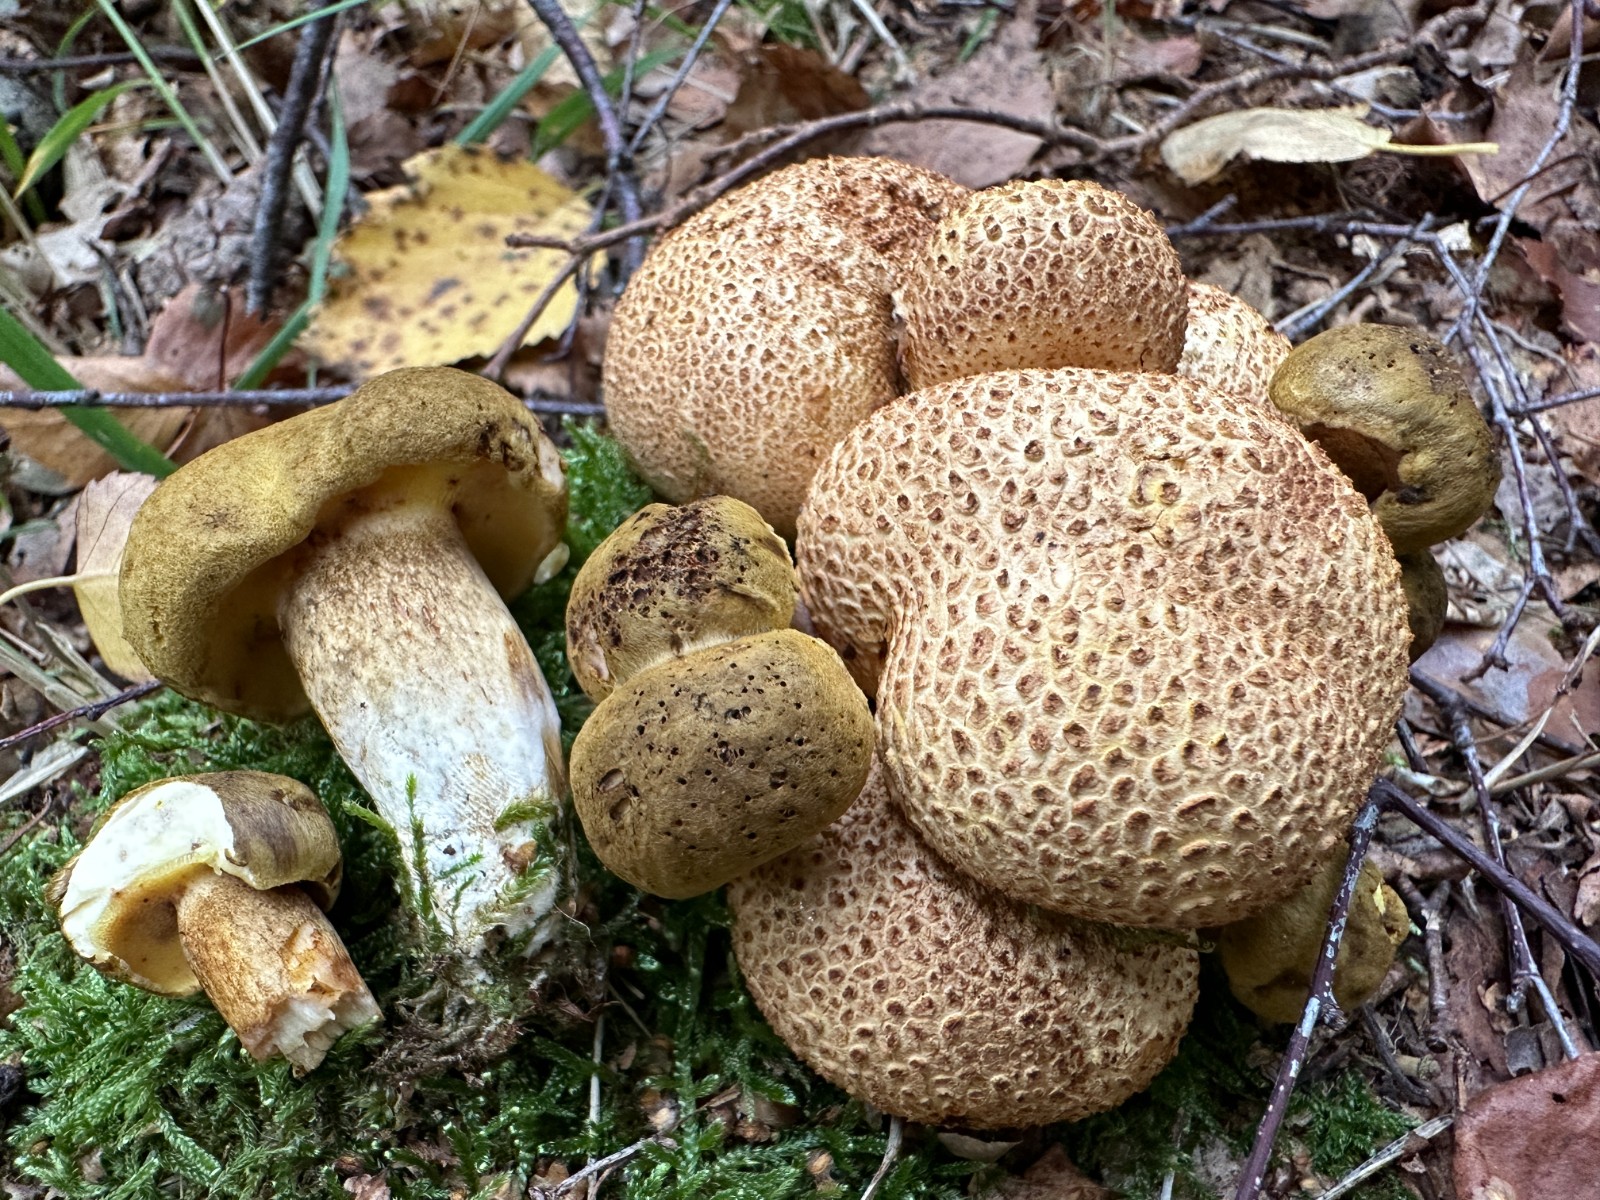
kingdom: Fungi
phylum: Basidiomycota
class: Agaricomycetes
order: Boletales
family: Boletaceae
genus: Pseudoboletus
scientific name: Pseudoboletus parasiticus
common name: snyltende rørhat
